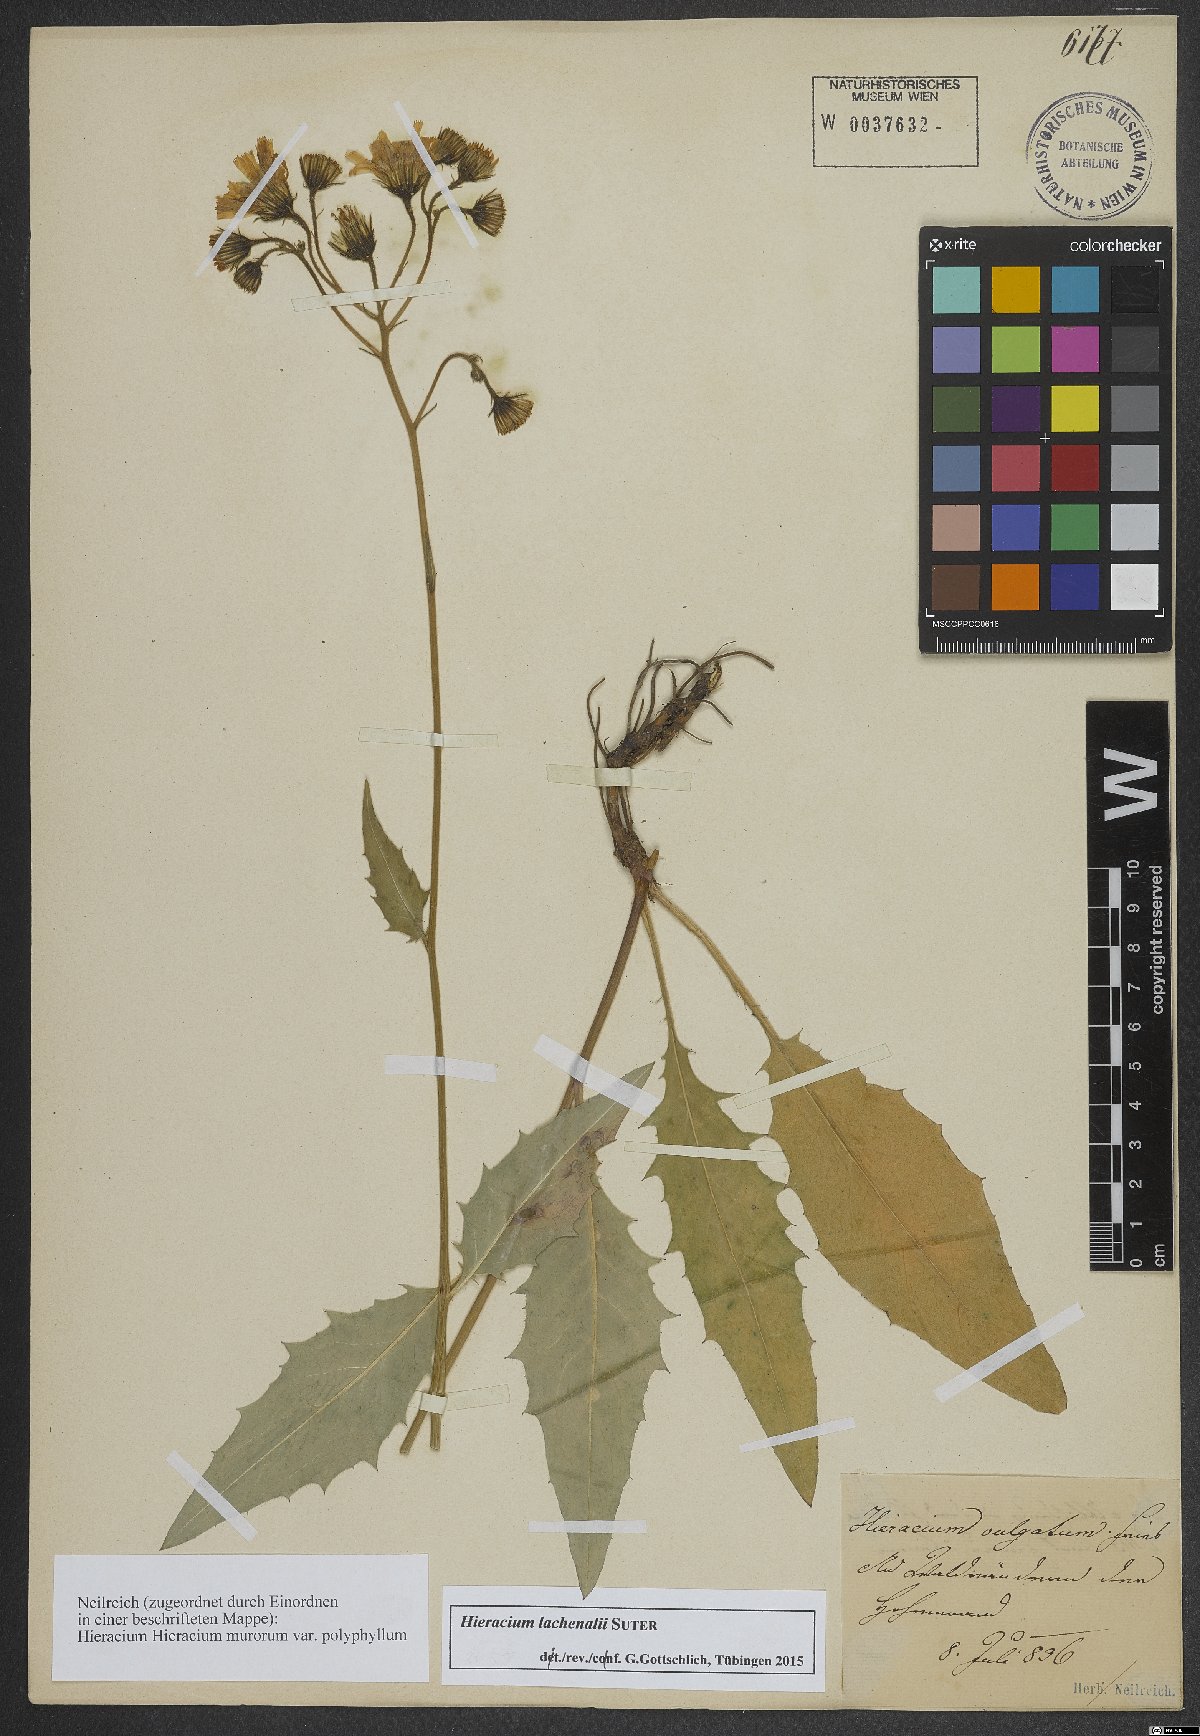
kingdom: Plantae
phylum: Tracheophyta
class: Magnoliopsida
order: Asterales
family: Asteraceae
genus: Hieracium
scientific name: Hieracium lachenalii
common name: Common hawkweed
